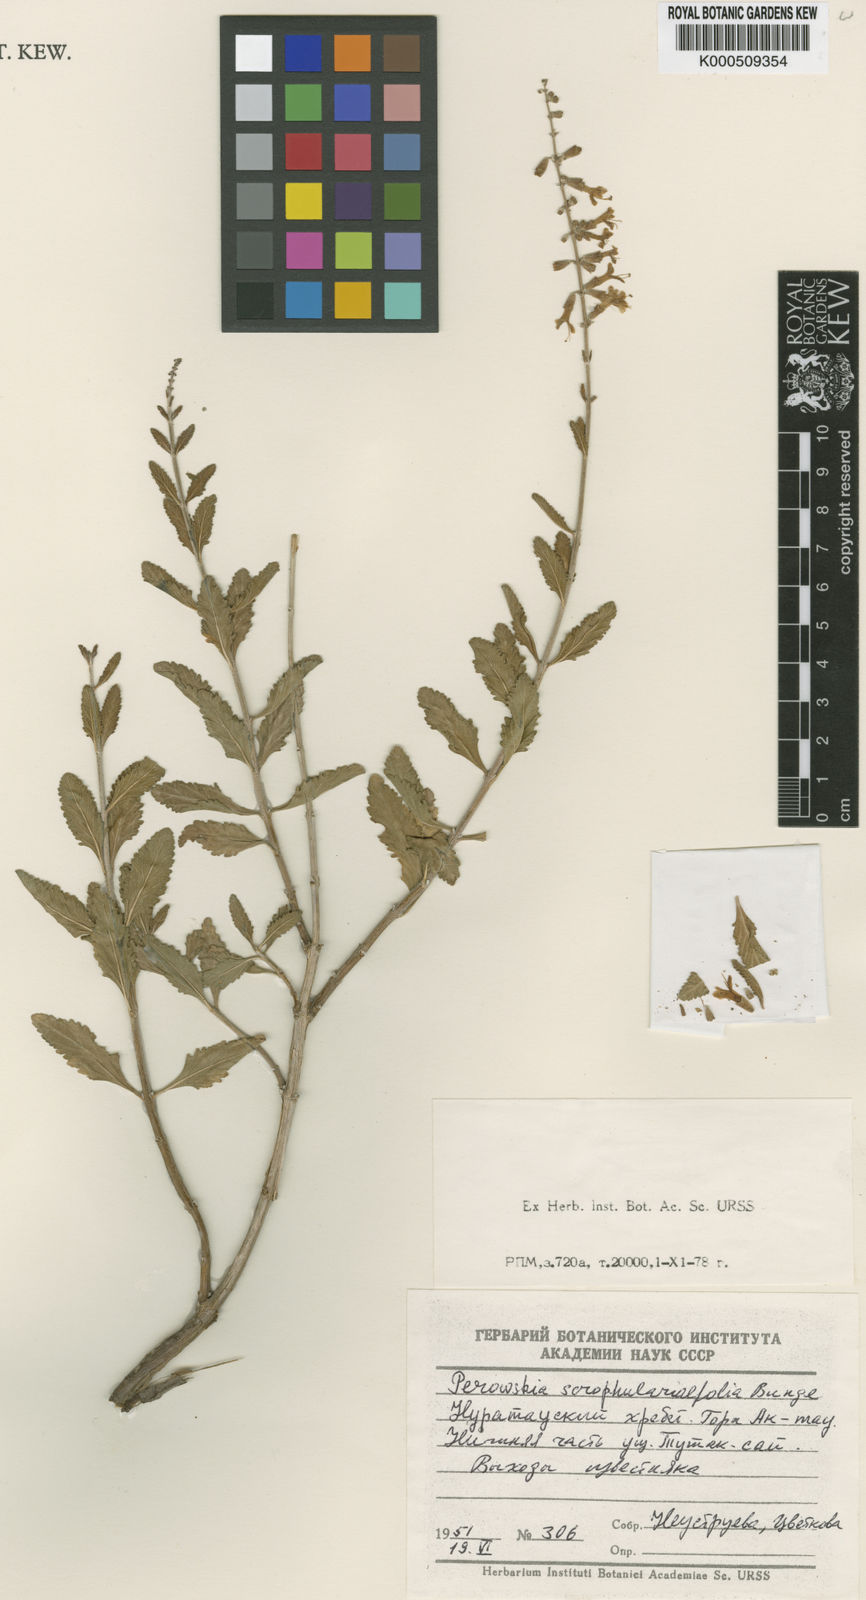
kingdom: Plantae
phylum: Tracheophyta
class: Magnoliopsida
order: Lamiales
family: Lamiaceae
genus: Salvia
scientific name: Salvia scrophulariifolia
